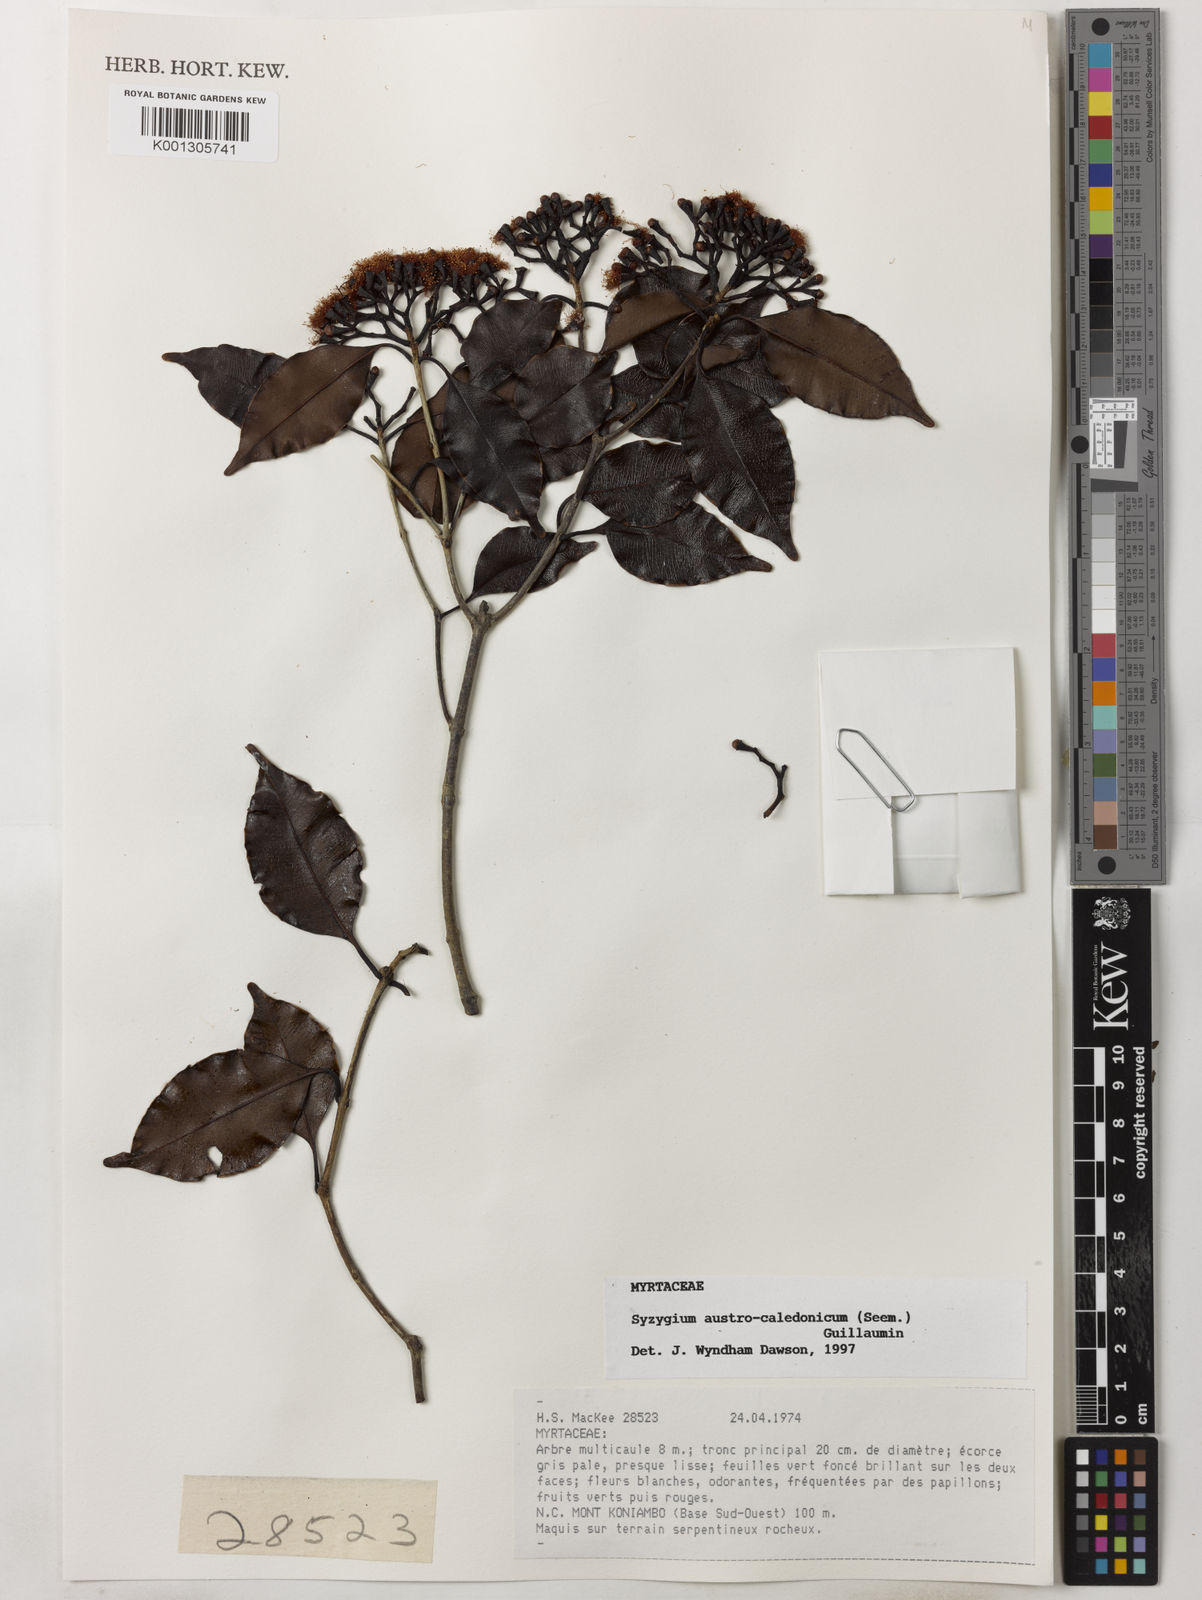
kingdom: Plantae
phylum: Tracheophyta
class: Magnoliopsida
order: Myrtales
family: Myrtaceae
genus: Syzygium
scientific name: Syzygium austrocaledonicum
